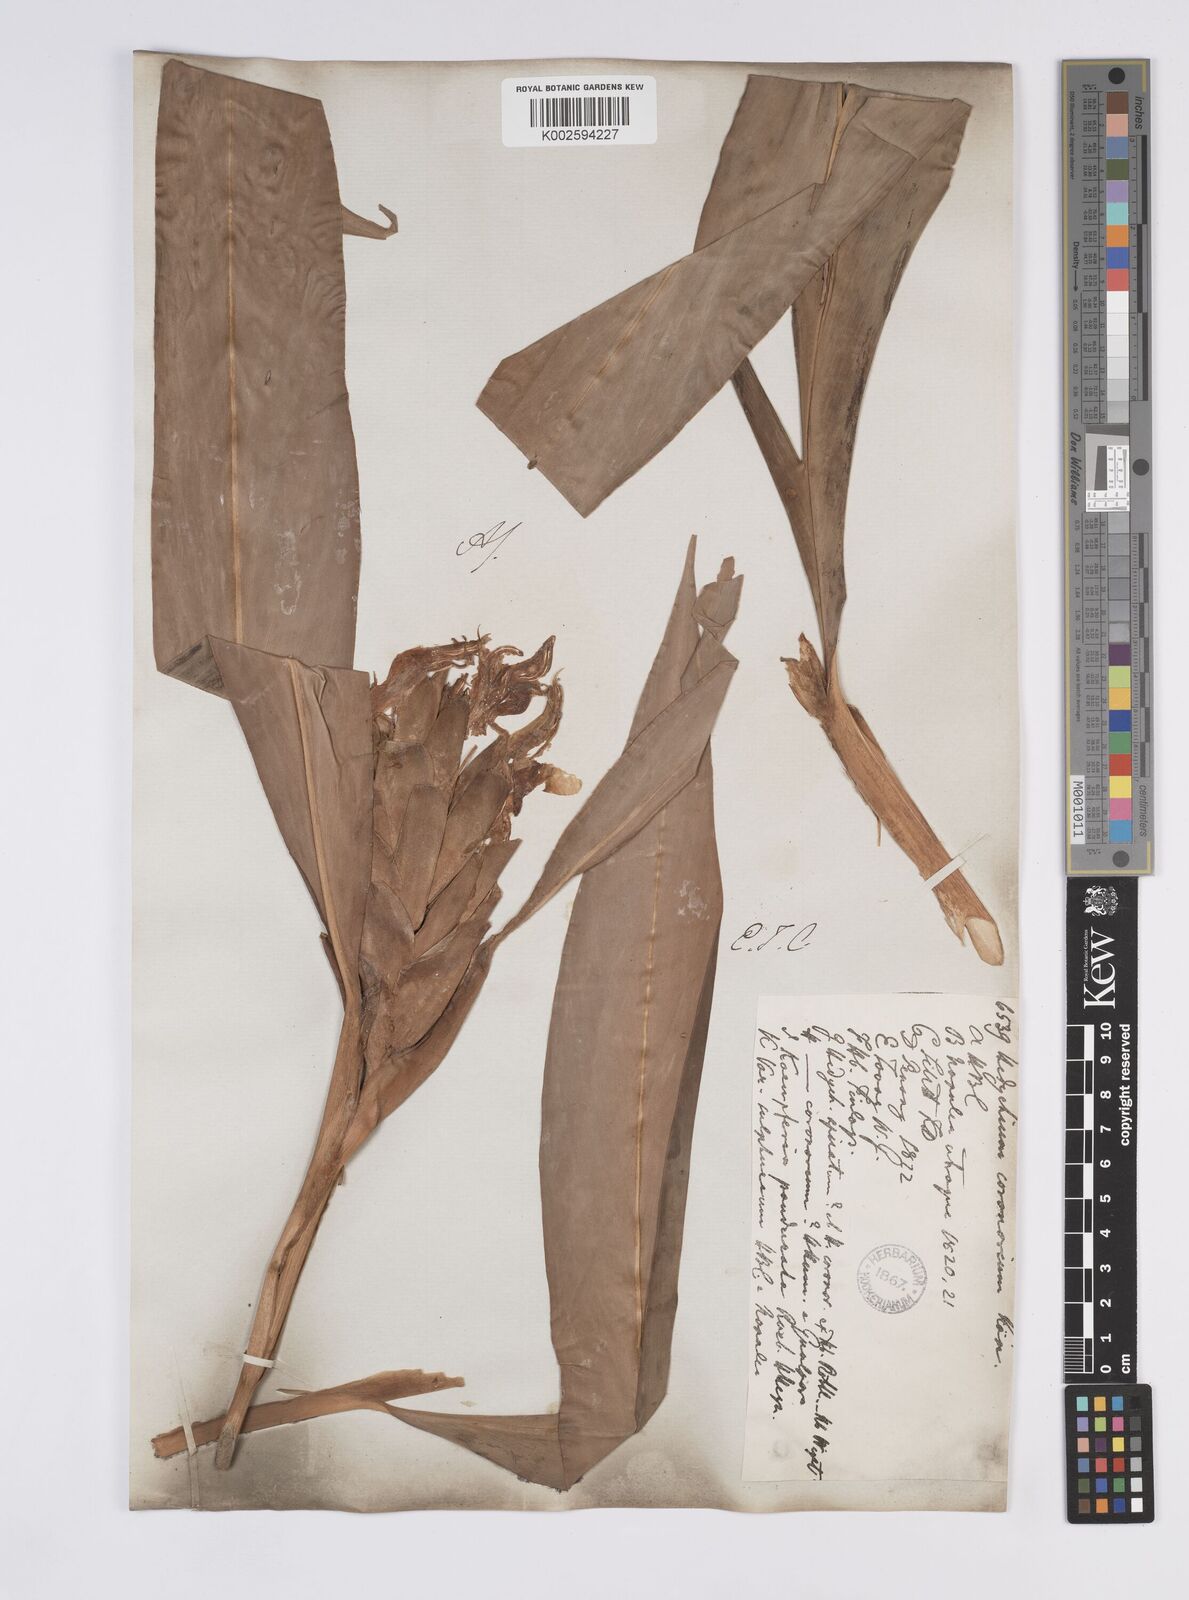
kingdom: Plantae
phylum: Tracheophyta
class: Liliopsida
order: Zingiberales
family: Zingiberaceae
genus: Hedychium
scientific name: Hedychium coronarium
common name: White garland-lily
